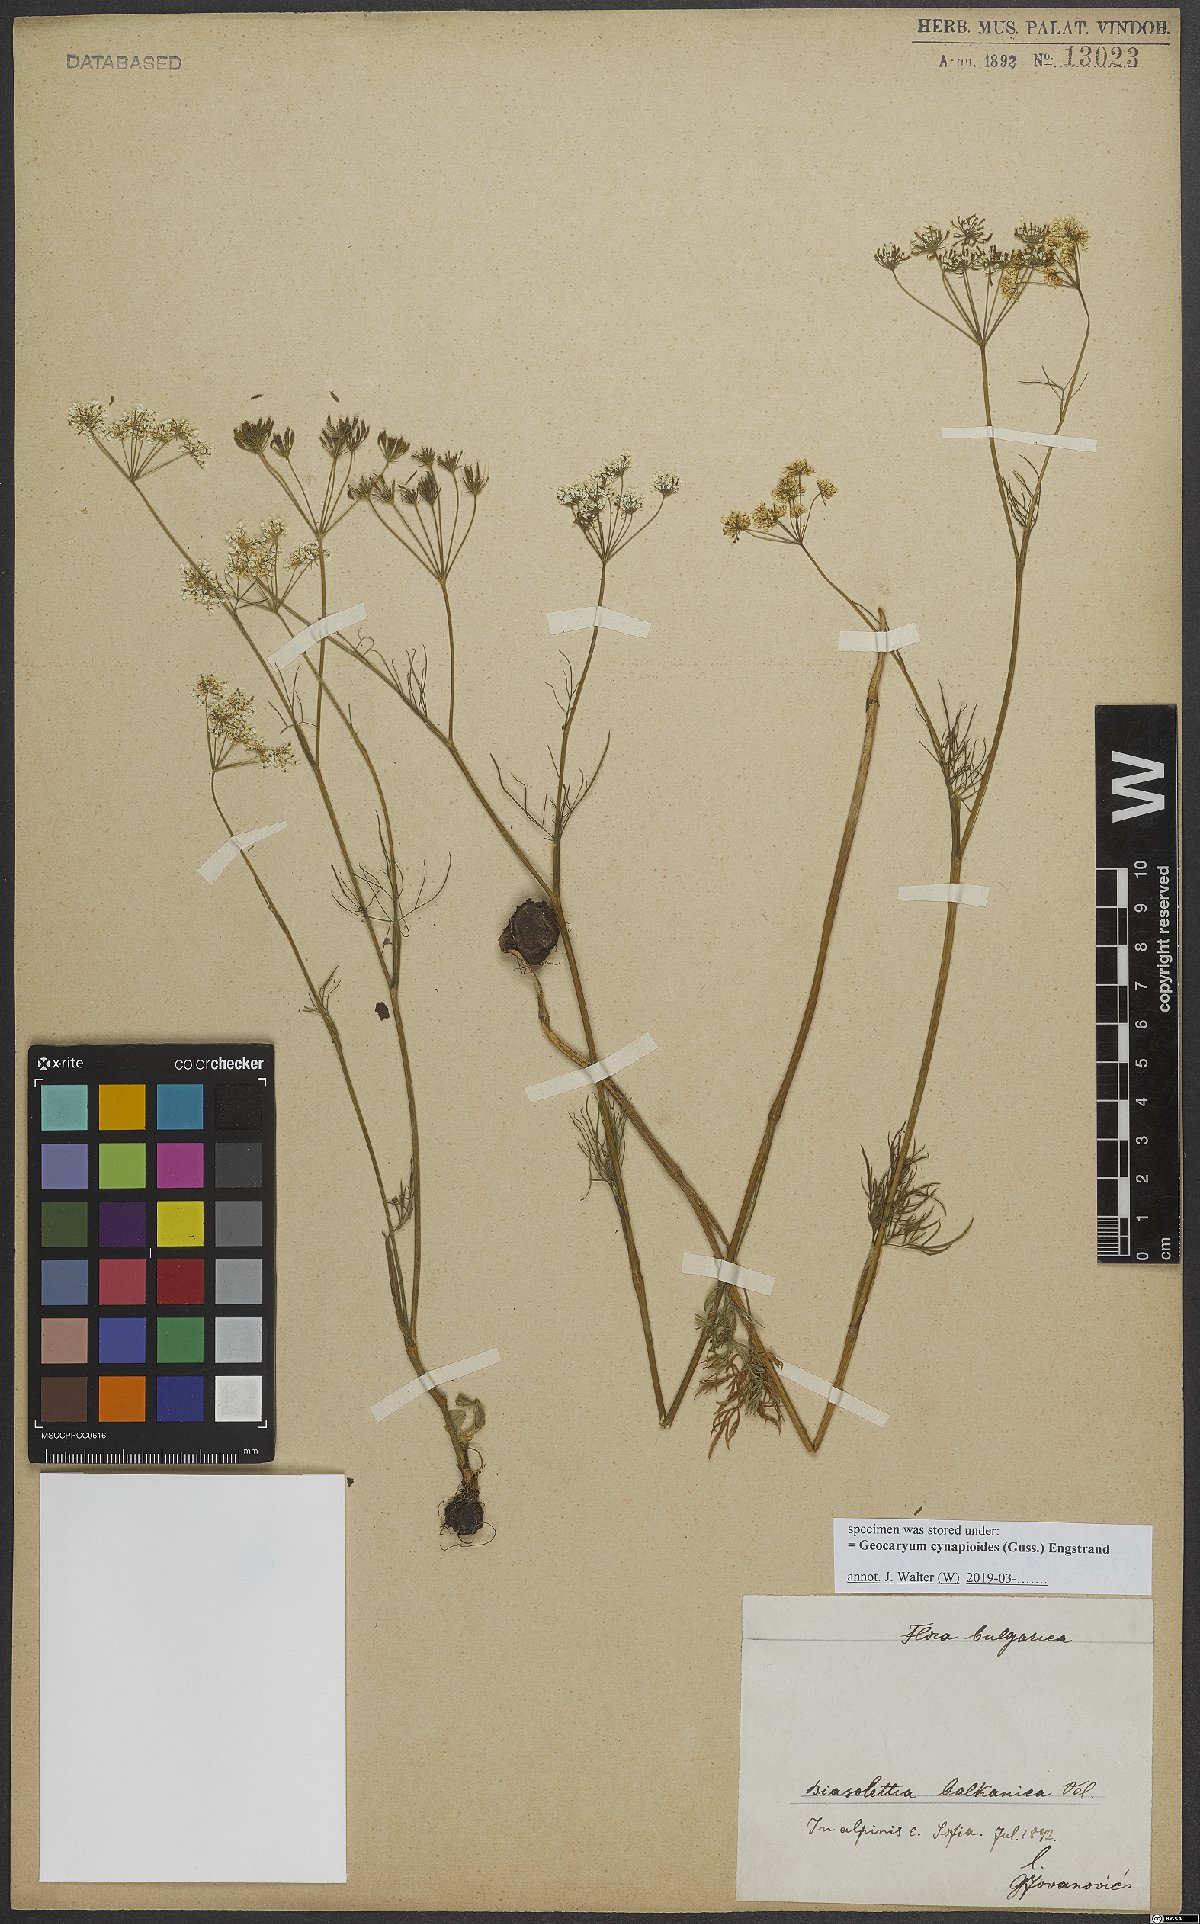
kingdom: Plantae
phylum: Tracheophyta
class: Magnoliopsida
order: Apiales
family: Apiaceae
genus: Geocaryum
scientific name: Geocaryum cynapioides
